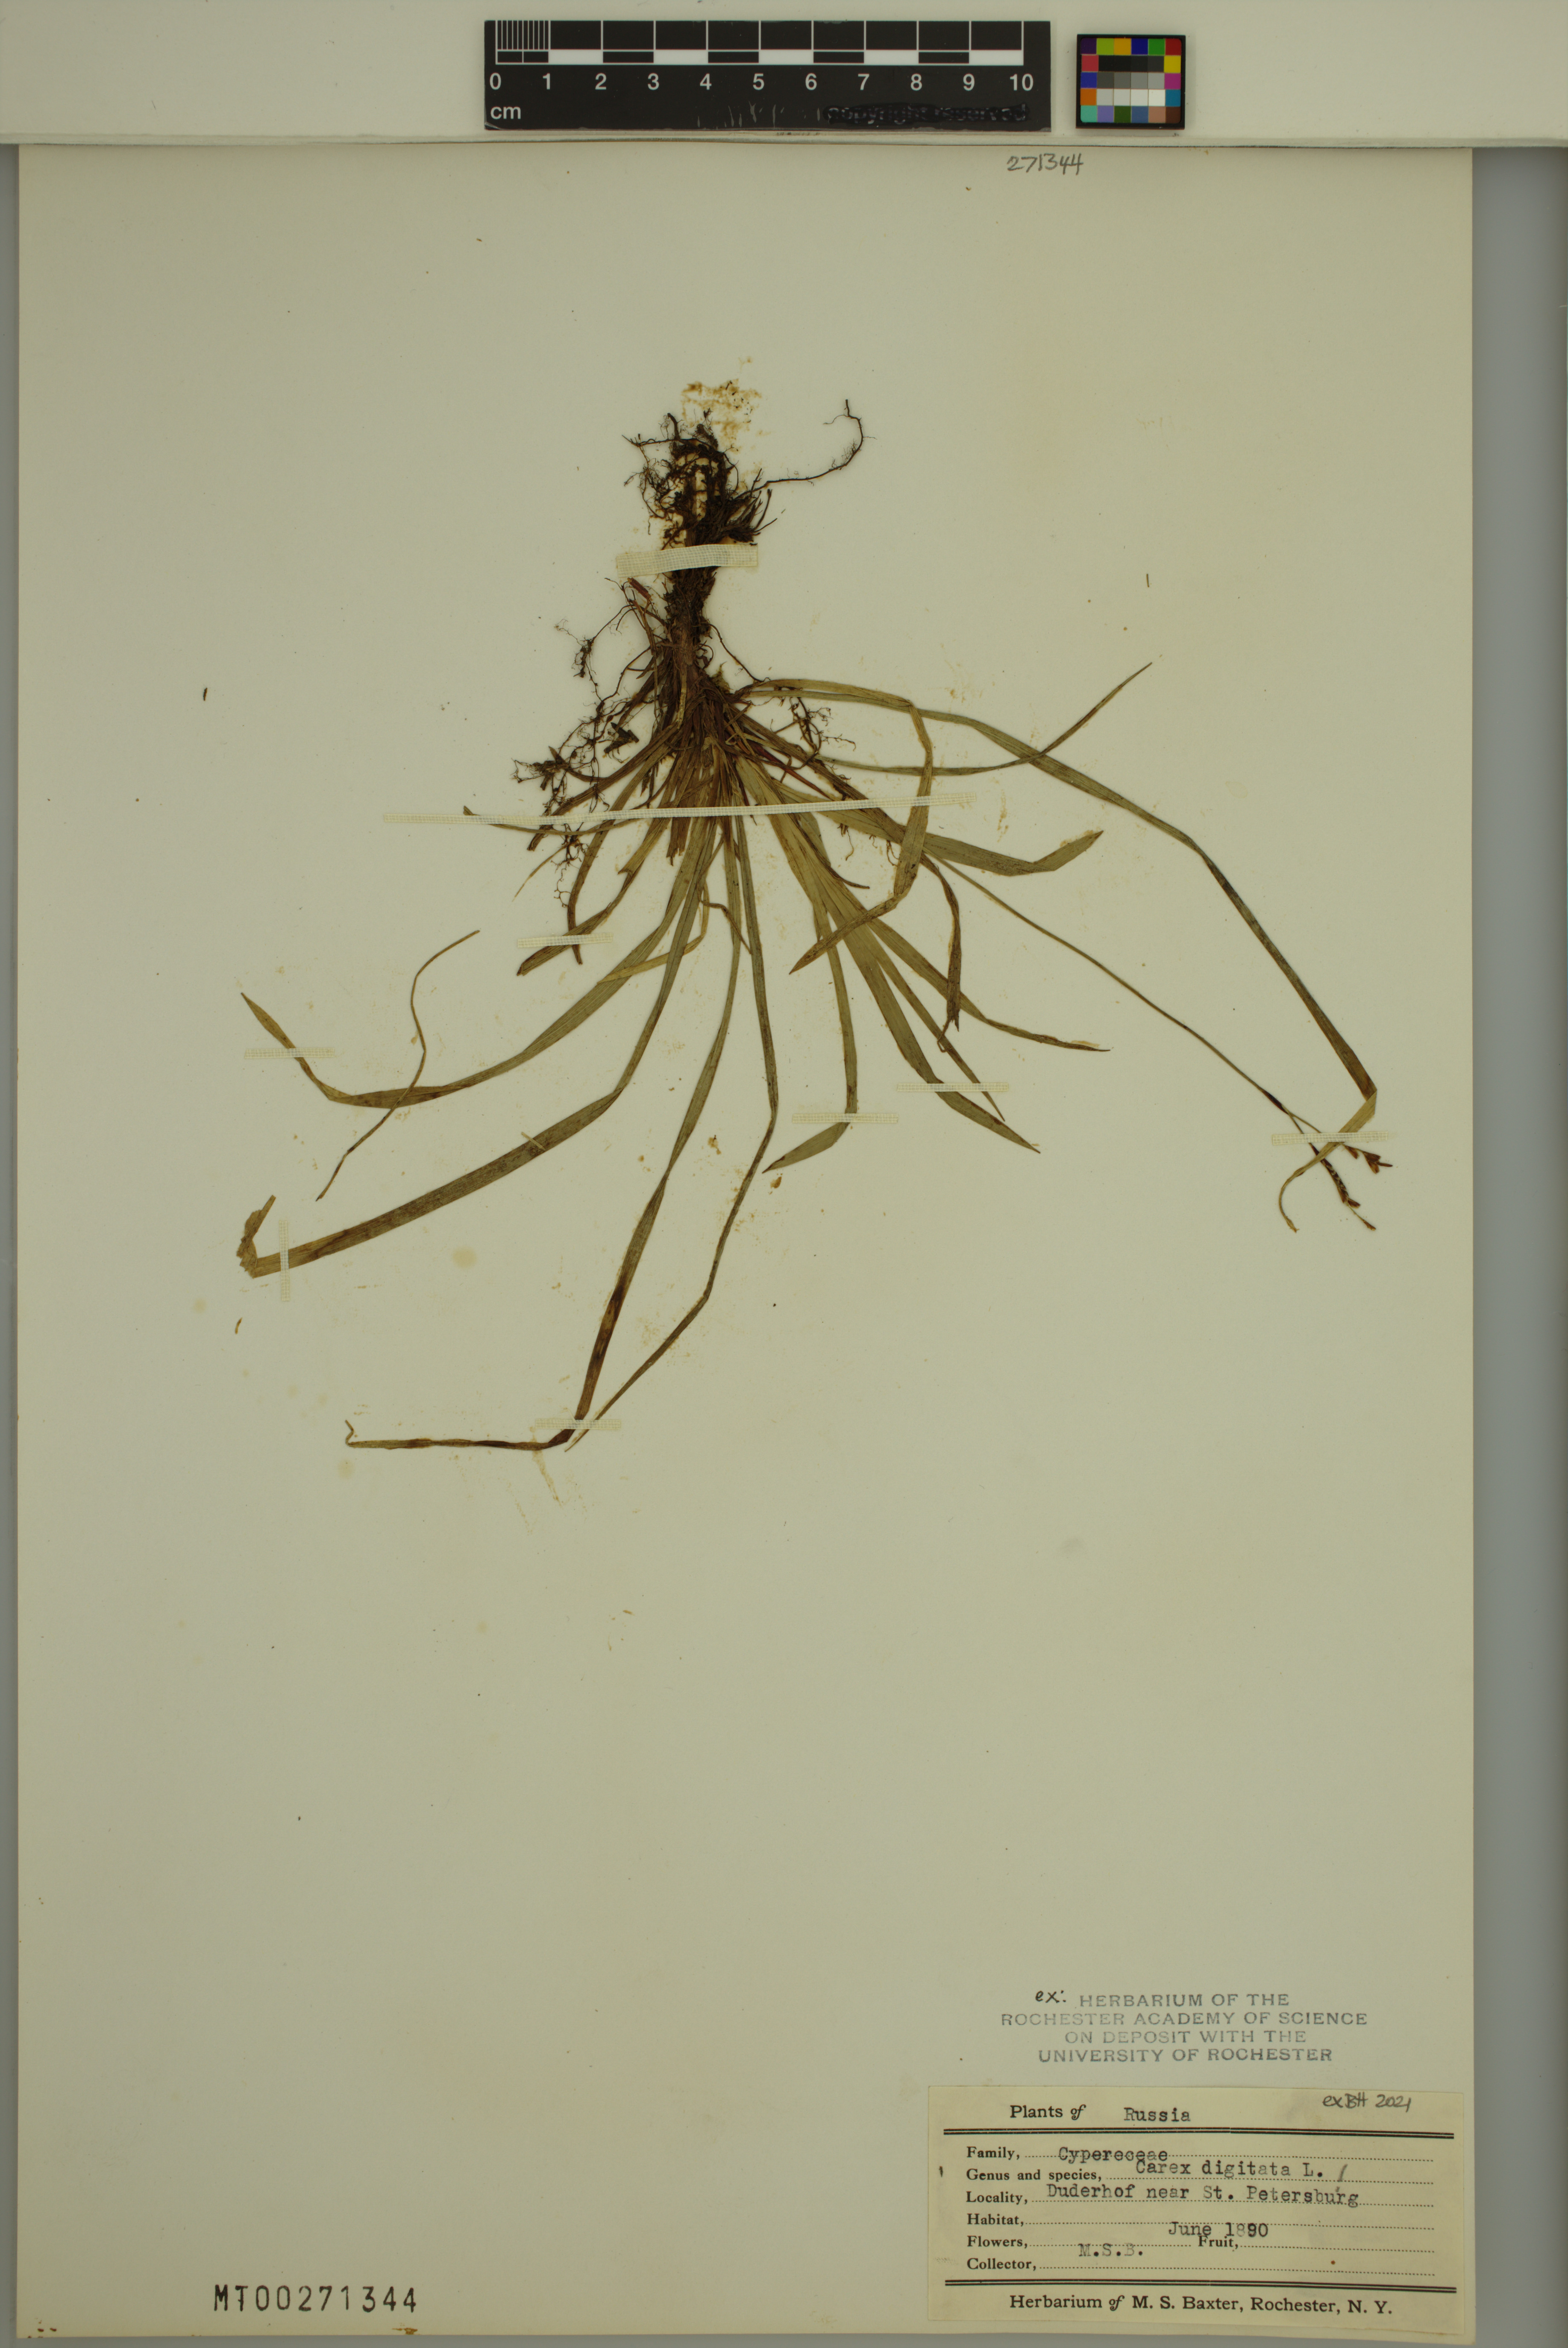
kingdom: Plantae
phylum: Tracheophyta
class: Liliopsida
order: Poales
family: Cyperaceae
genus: Carex
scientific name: Carex digitata
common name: Fingered sedge
